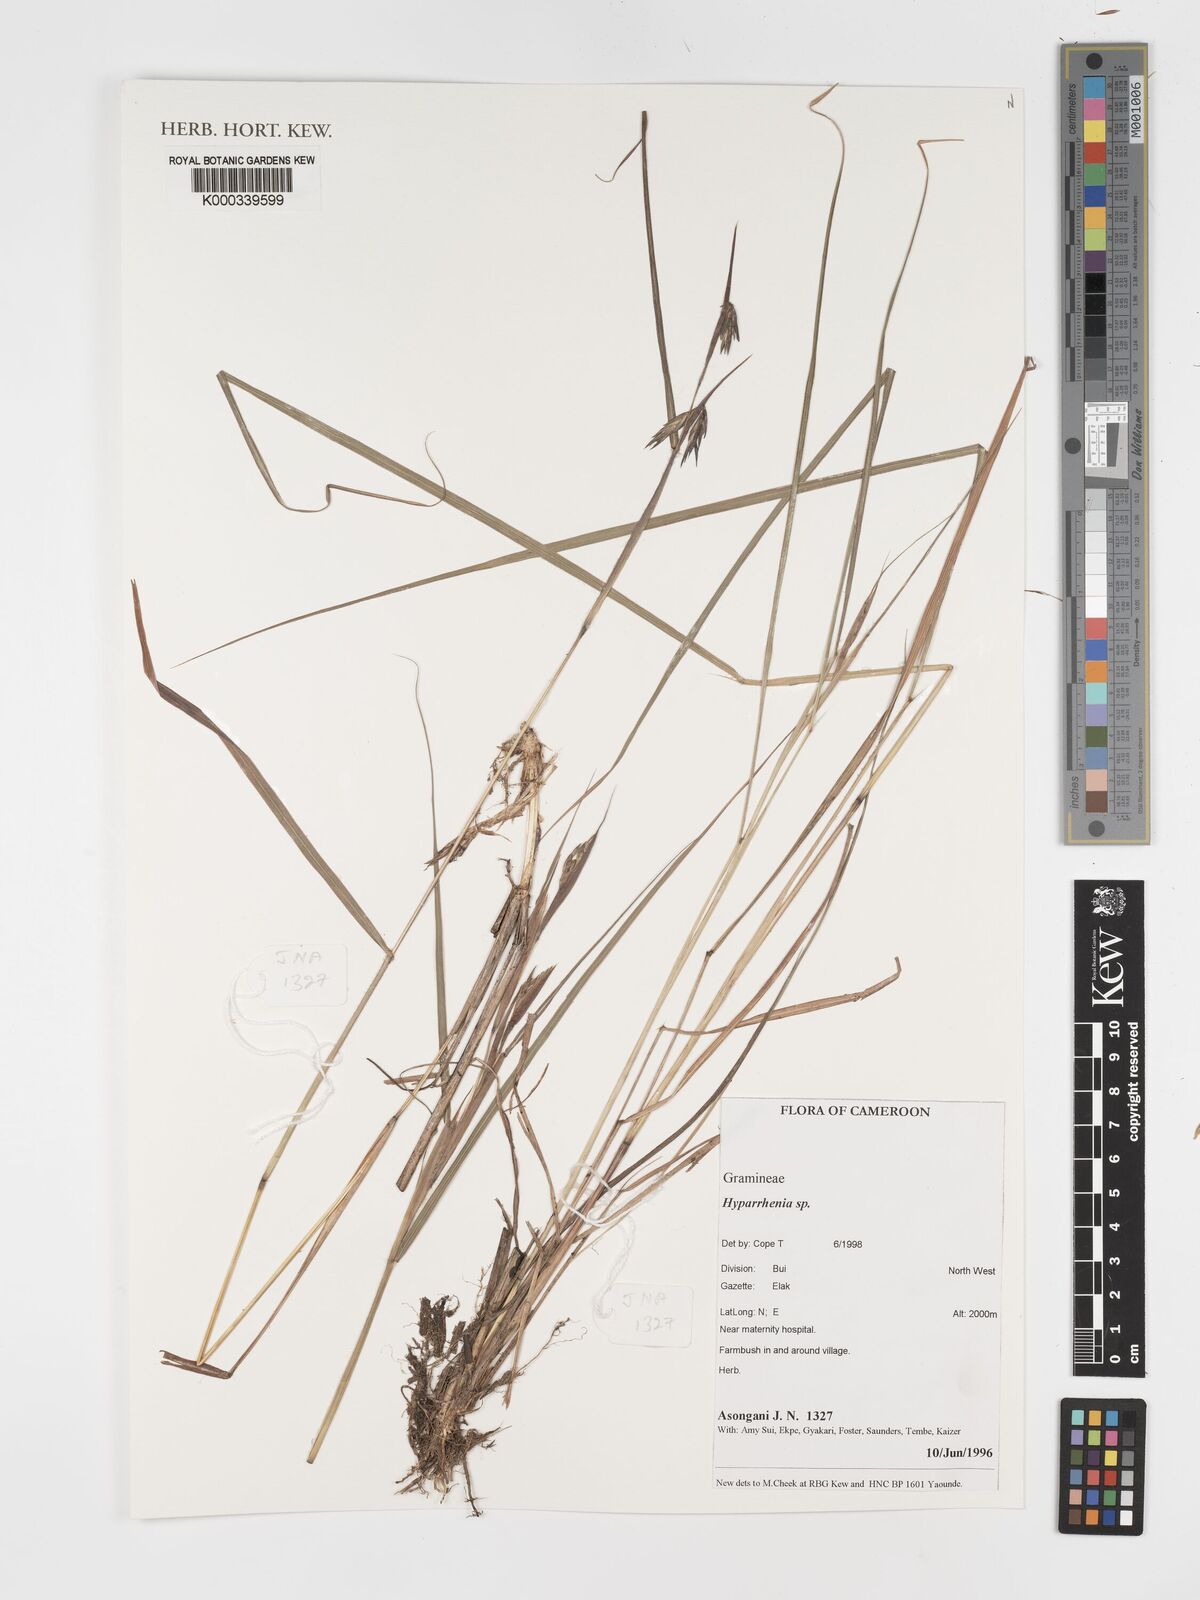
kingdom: Plantae
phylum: Tracheophyta
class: Liliopsida
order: Poales
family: Poaceae
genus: Hyparrhenia
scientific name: Hyparrhenia
